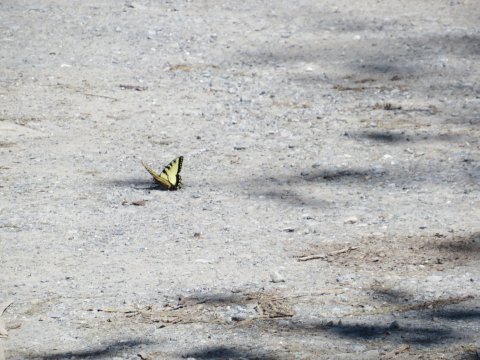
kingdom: Animalia
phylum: Arthropoda
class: Insecta
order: Lepidoptera
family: Papilionidae
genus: Pterourus
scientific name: Pterourus glaucus
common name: Eastern Tiger Swallowtail
